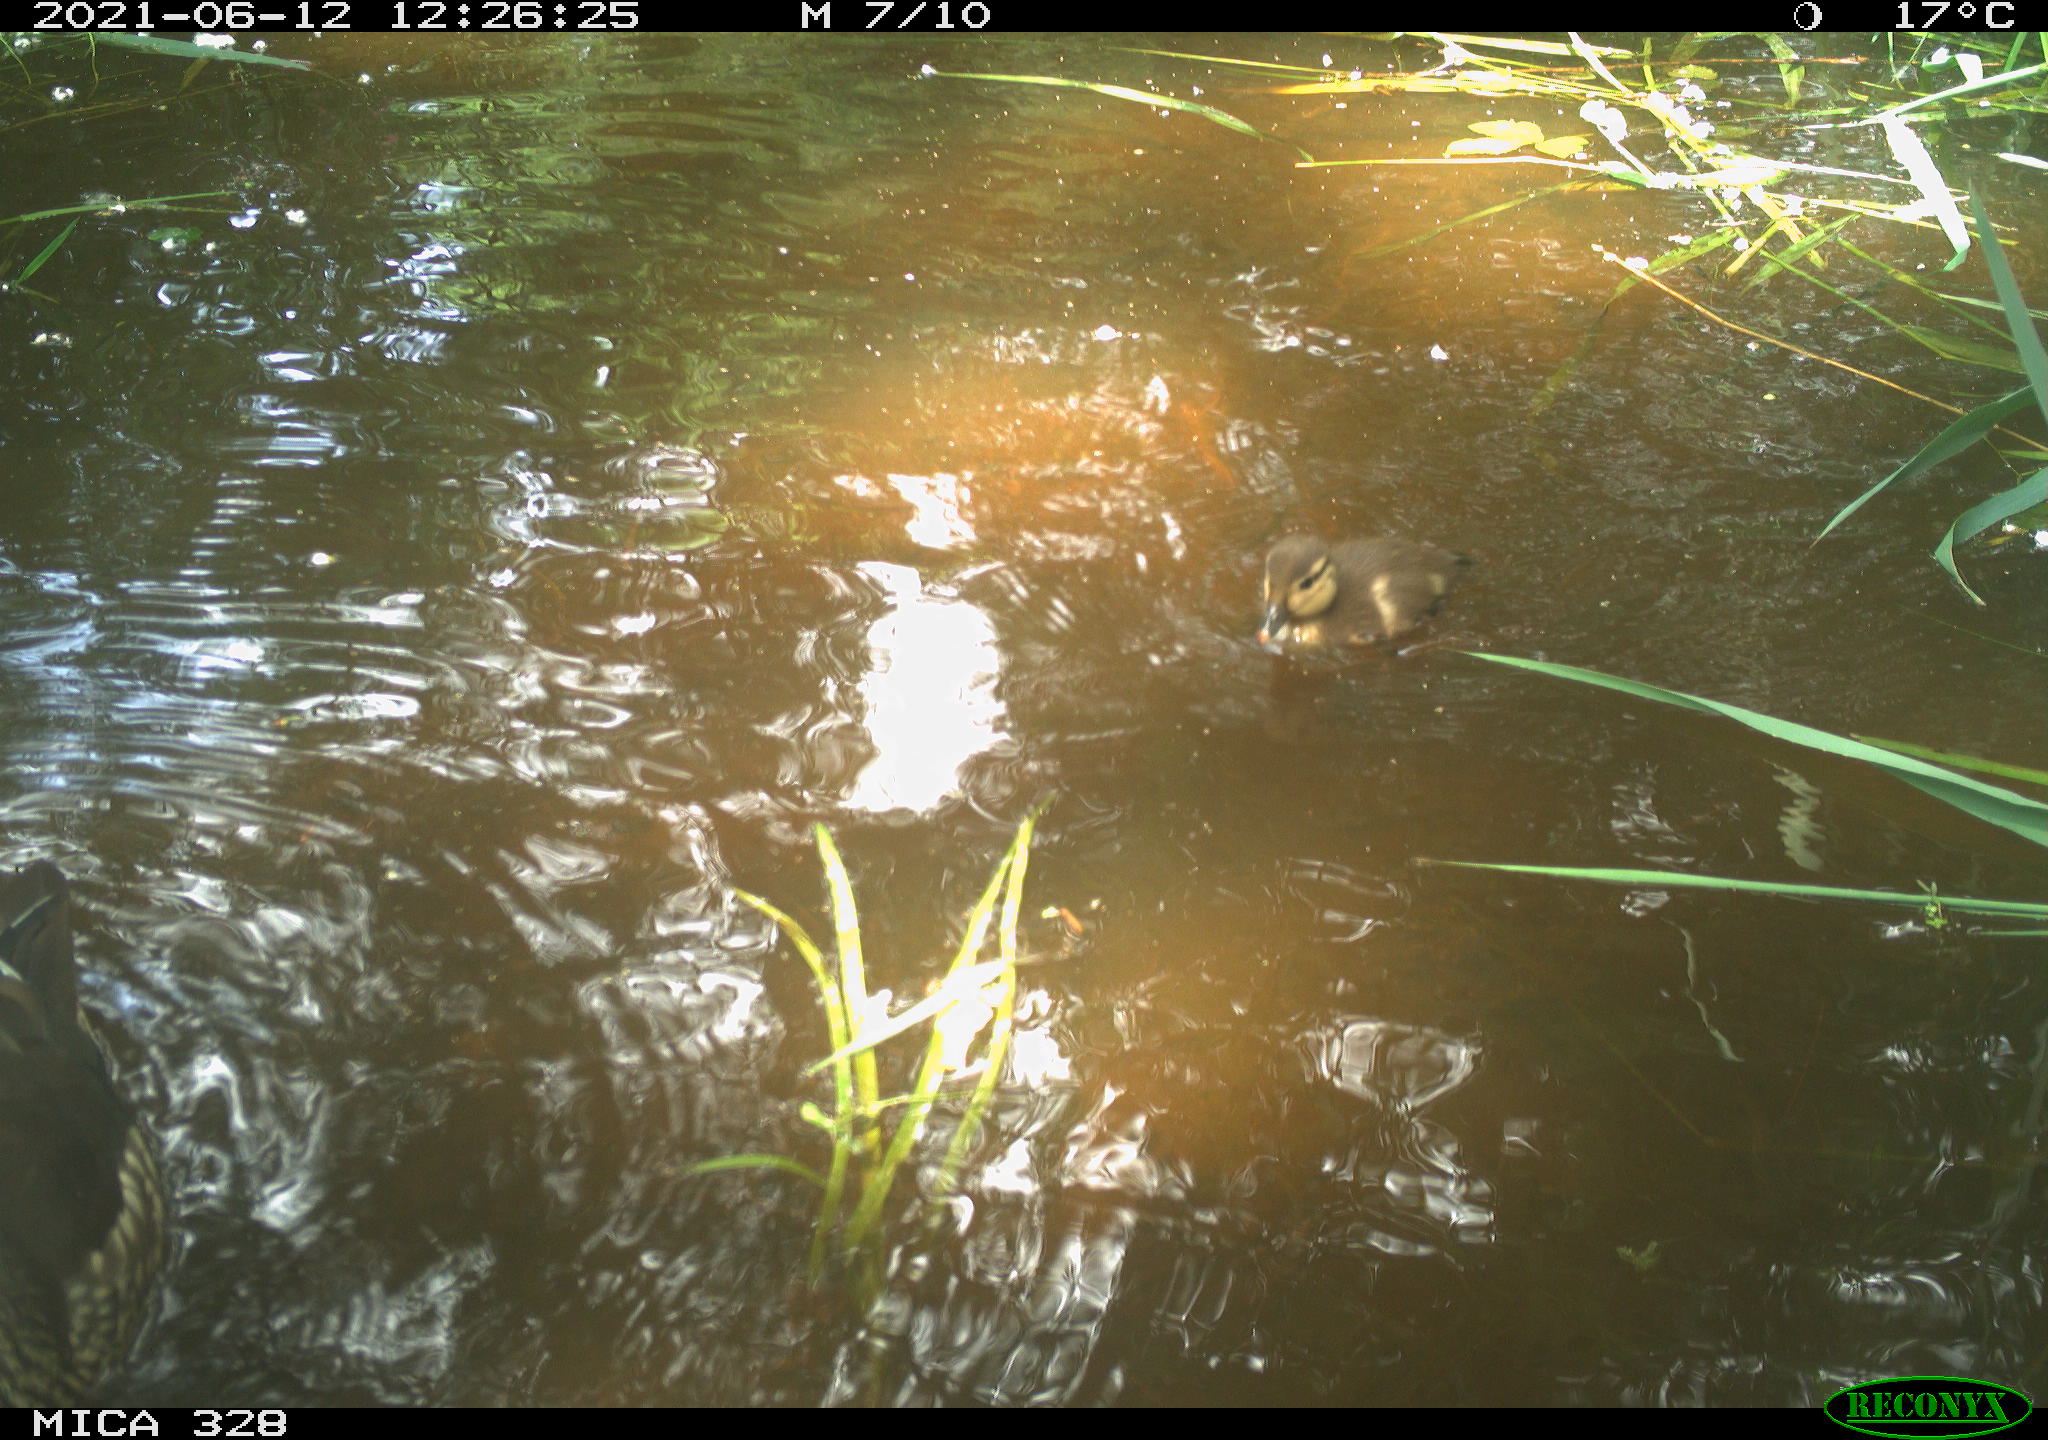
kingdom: Animalia
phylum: Chordata
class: Aves
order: Anseriformes
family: Anatidae
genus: Aix
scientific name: Aix galericulata
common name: Mandarin duck
